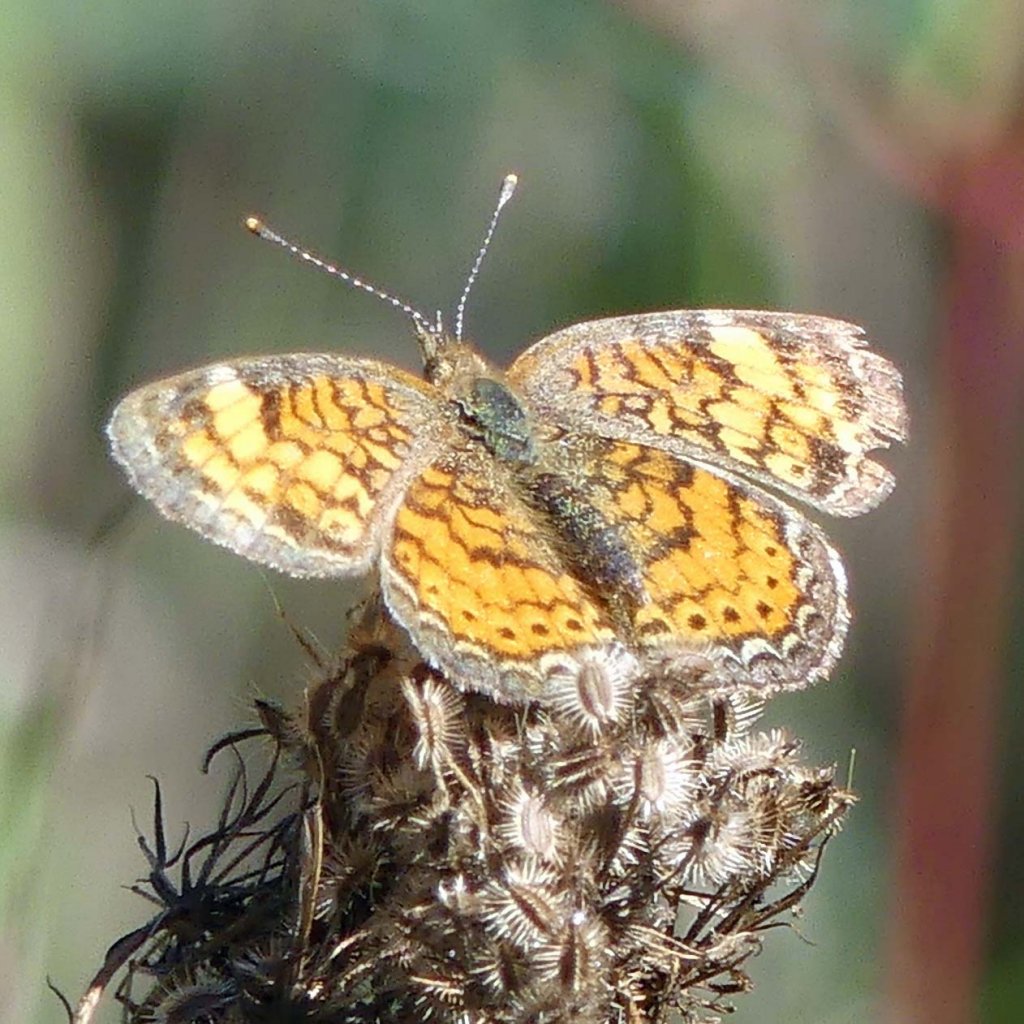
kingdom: Animalia
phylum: Arthropoda
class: Insecta
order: Lepidoptera
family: Nymphalidae
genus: Phyciodes
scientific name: Phyciodes tharos
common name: Northern Crescent
